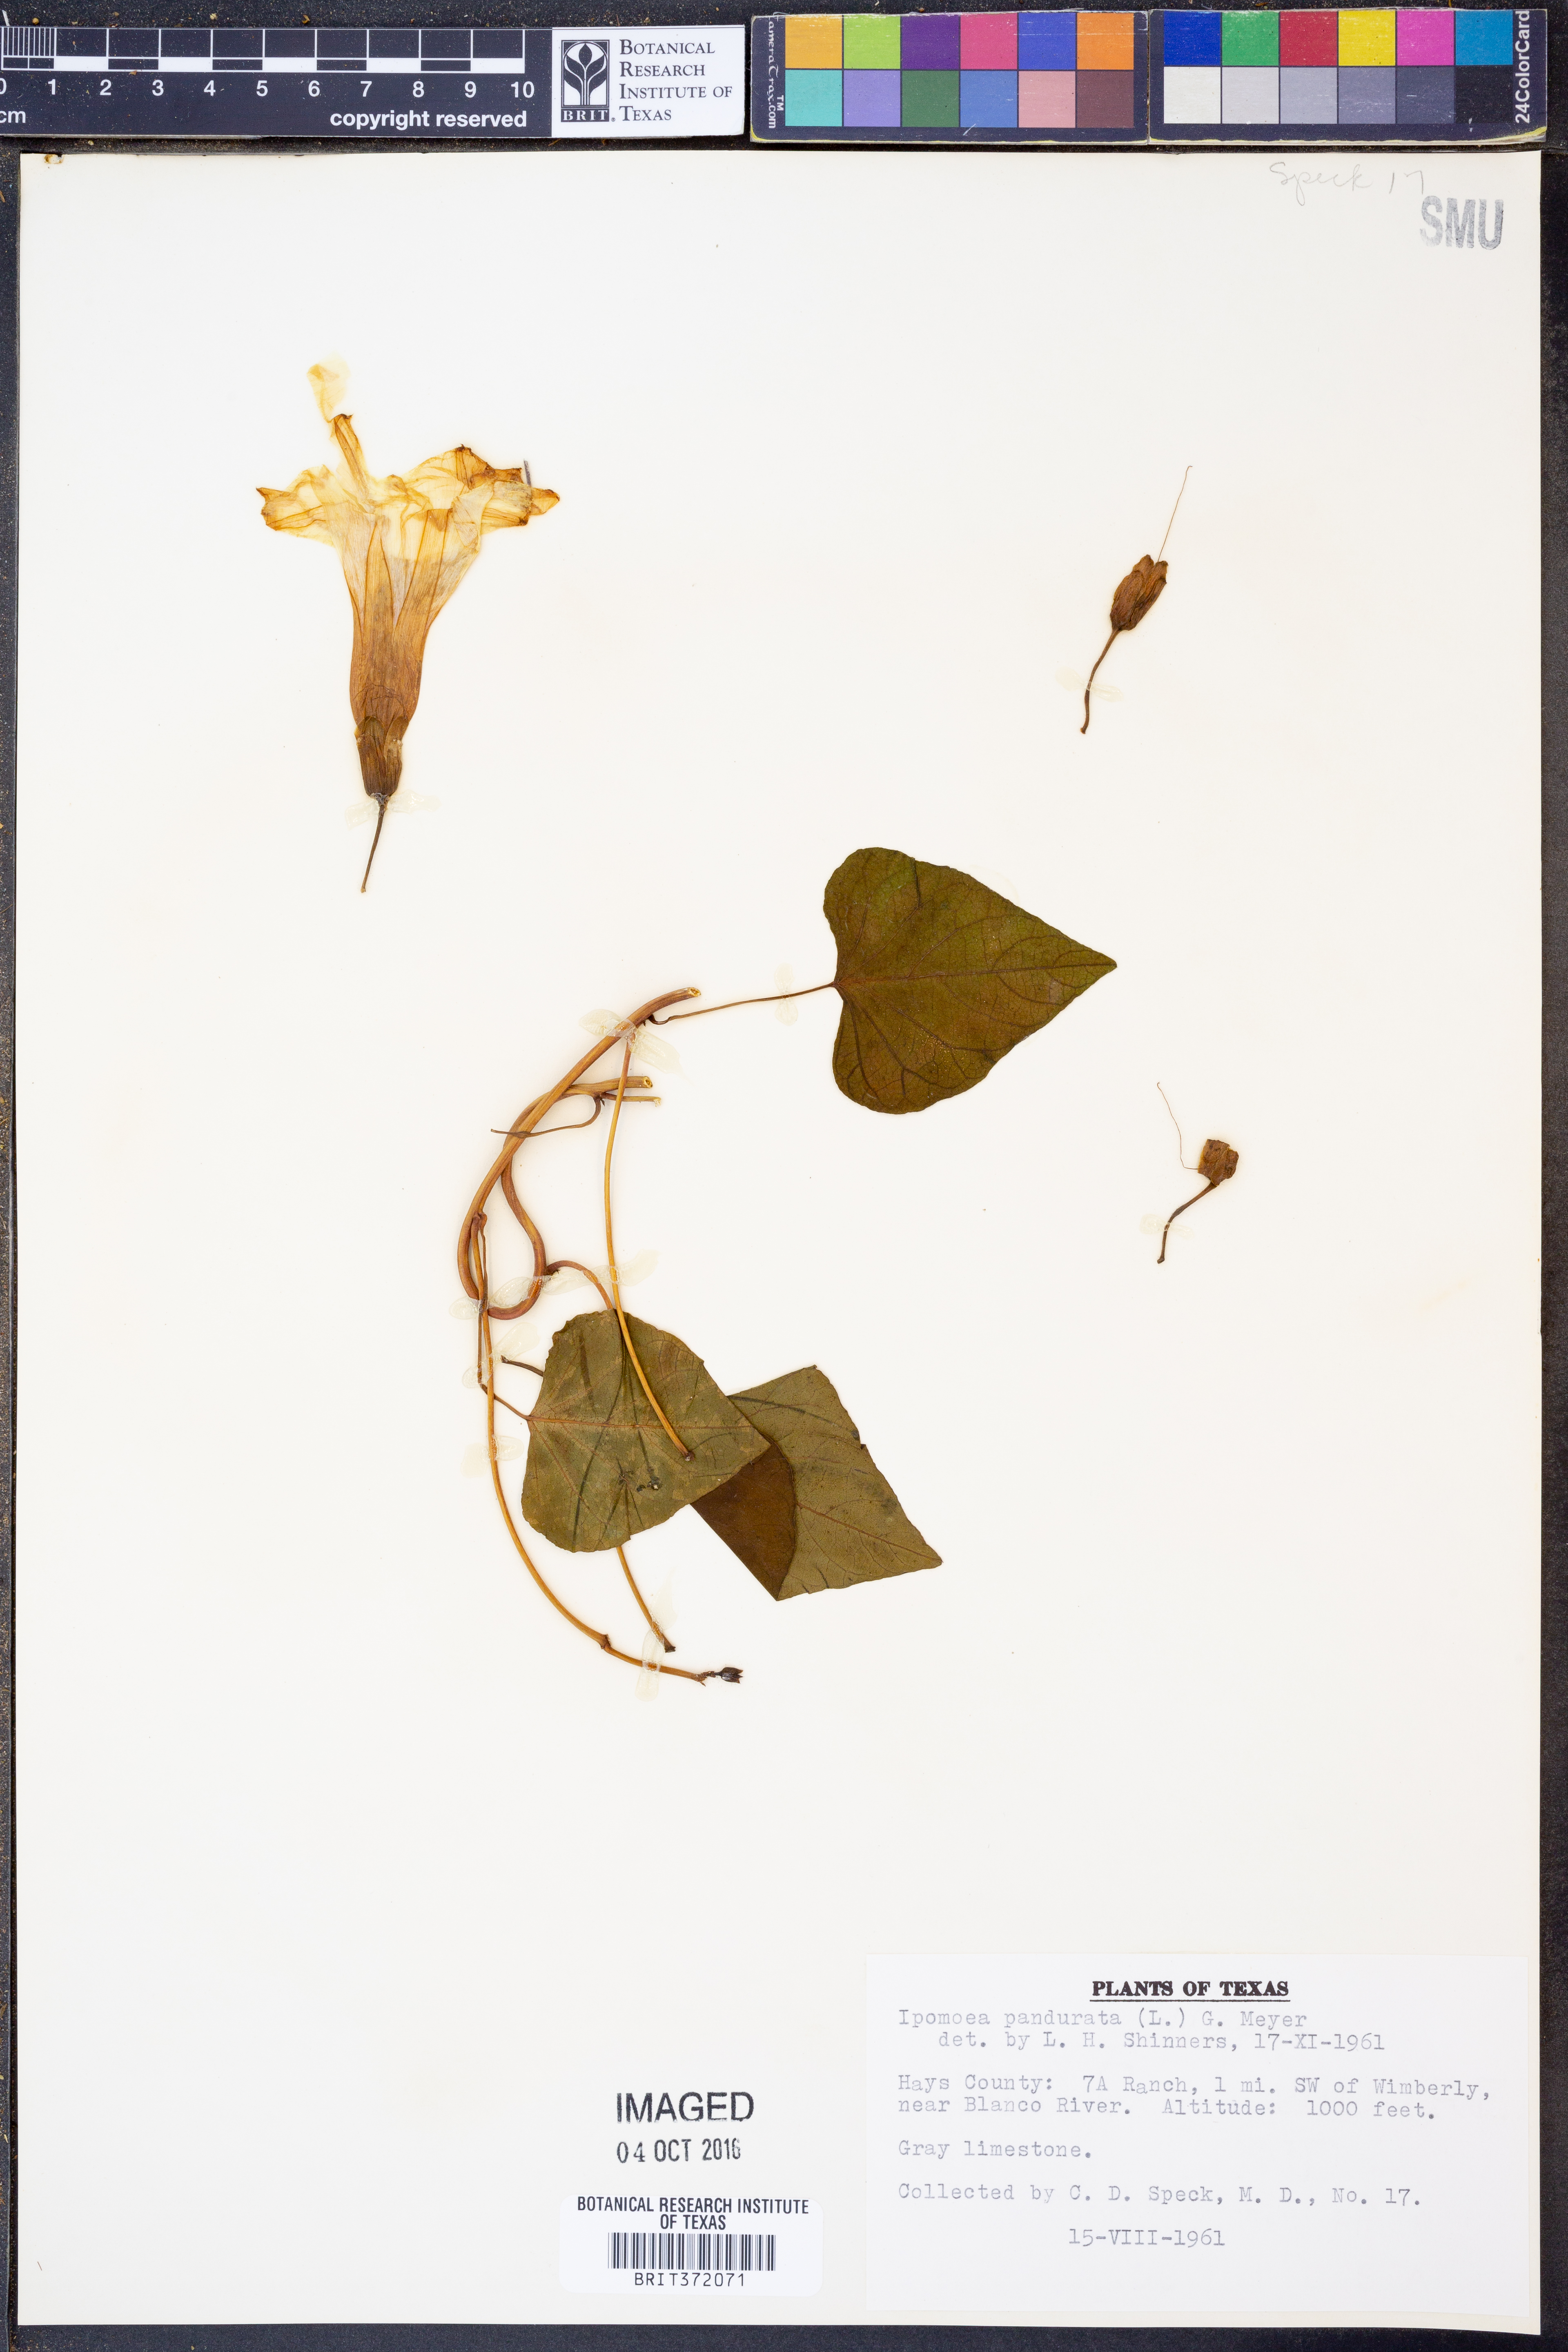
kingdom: Plantae
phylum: Tracheophyta
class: Magnoliopsida
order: Solanales
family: Convolvulaceae
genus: Ipomoea
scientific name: Ipomoea pandurata
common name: Man-of-the-earth
